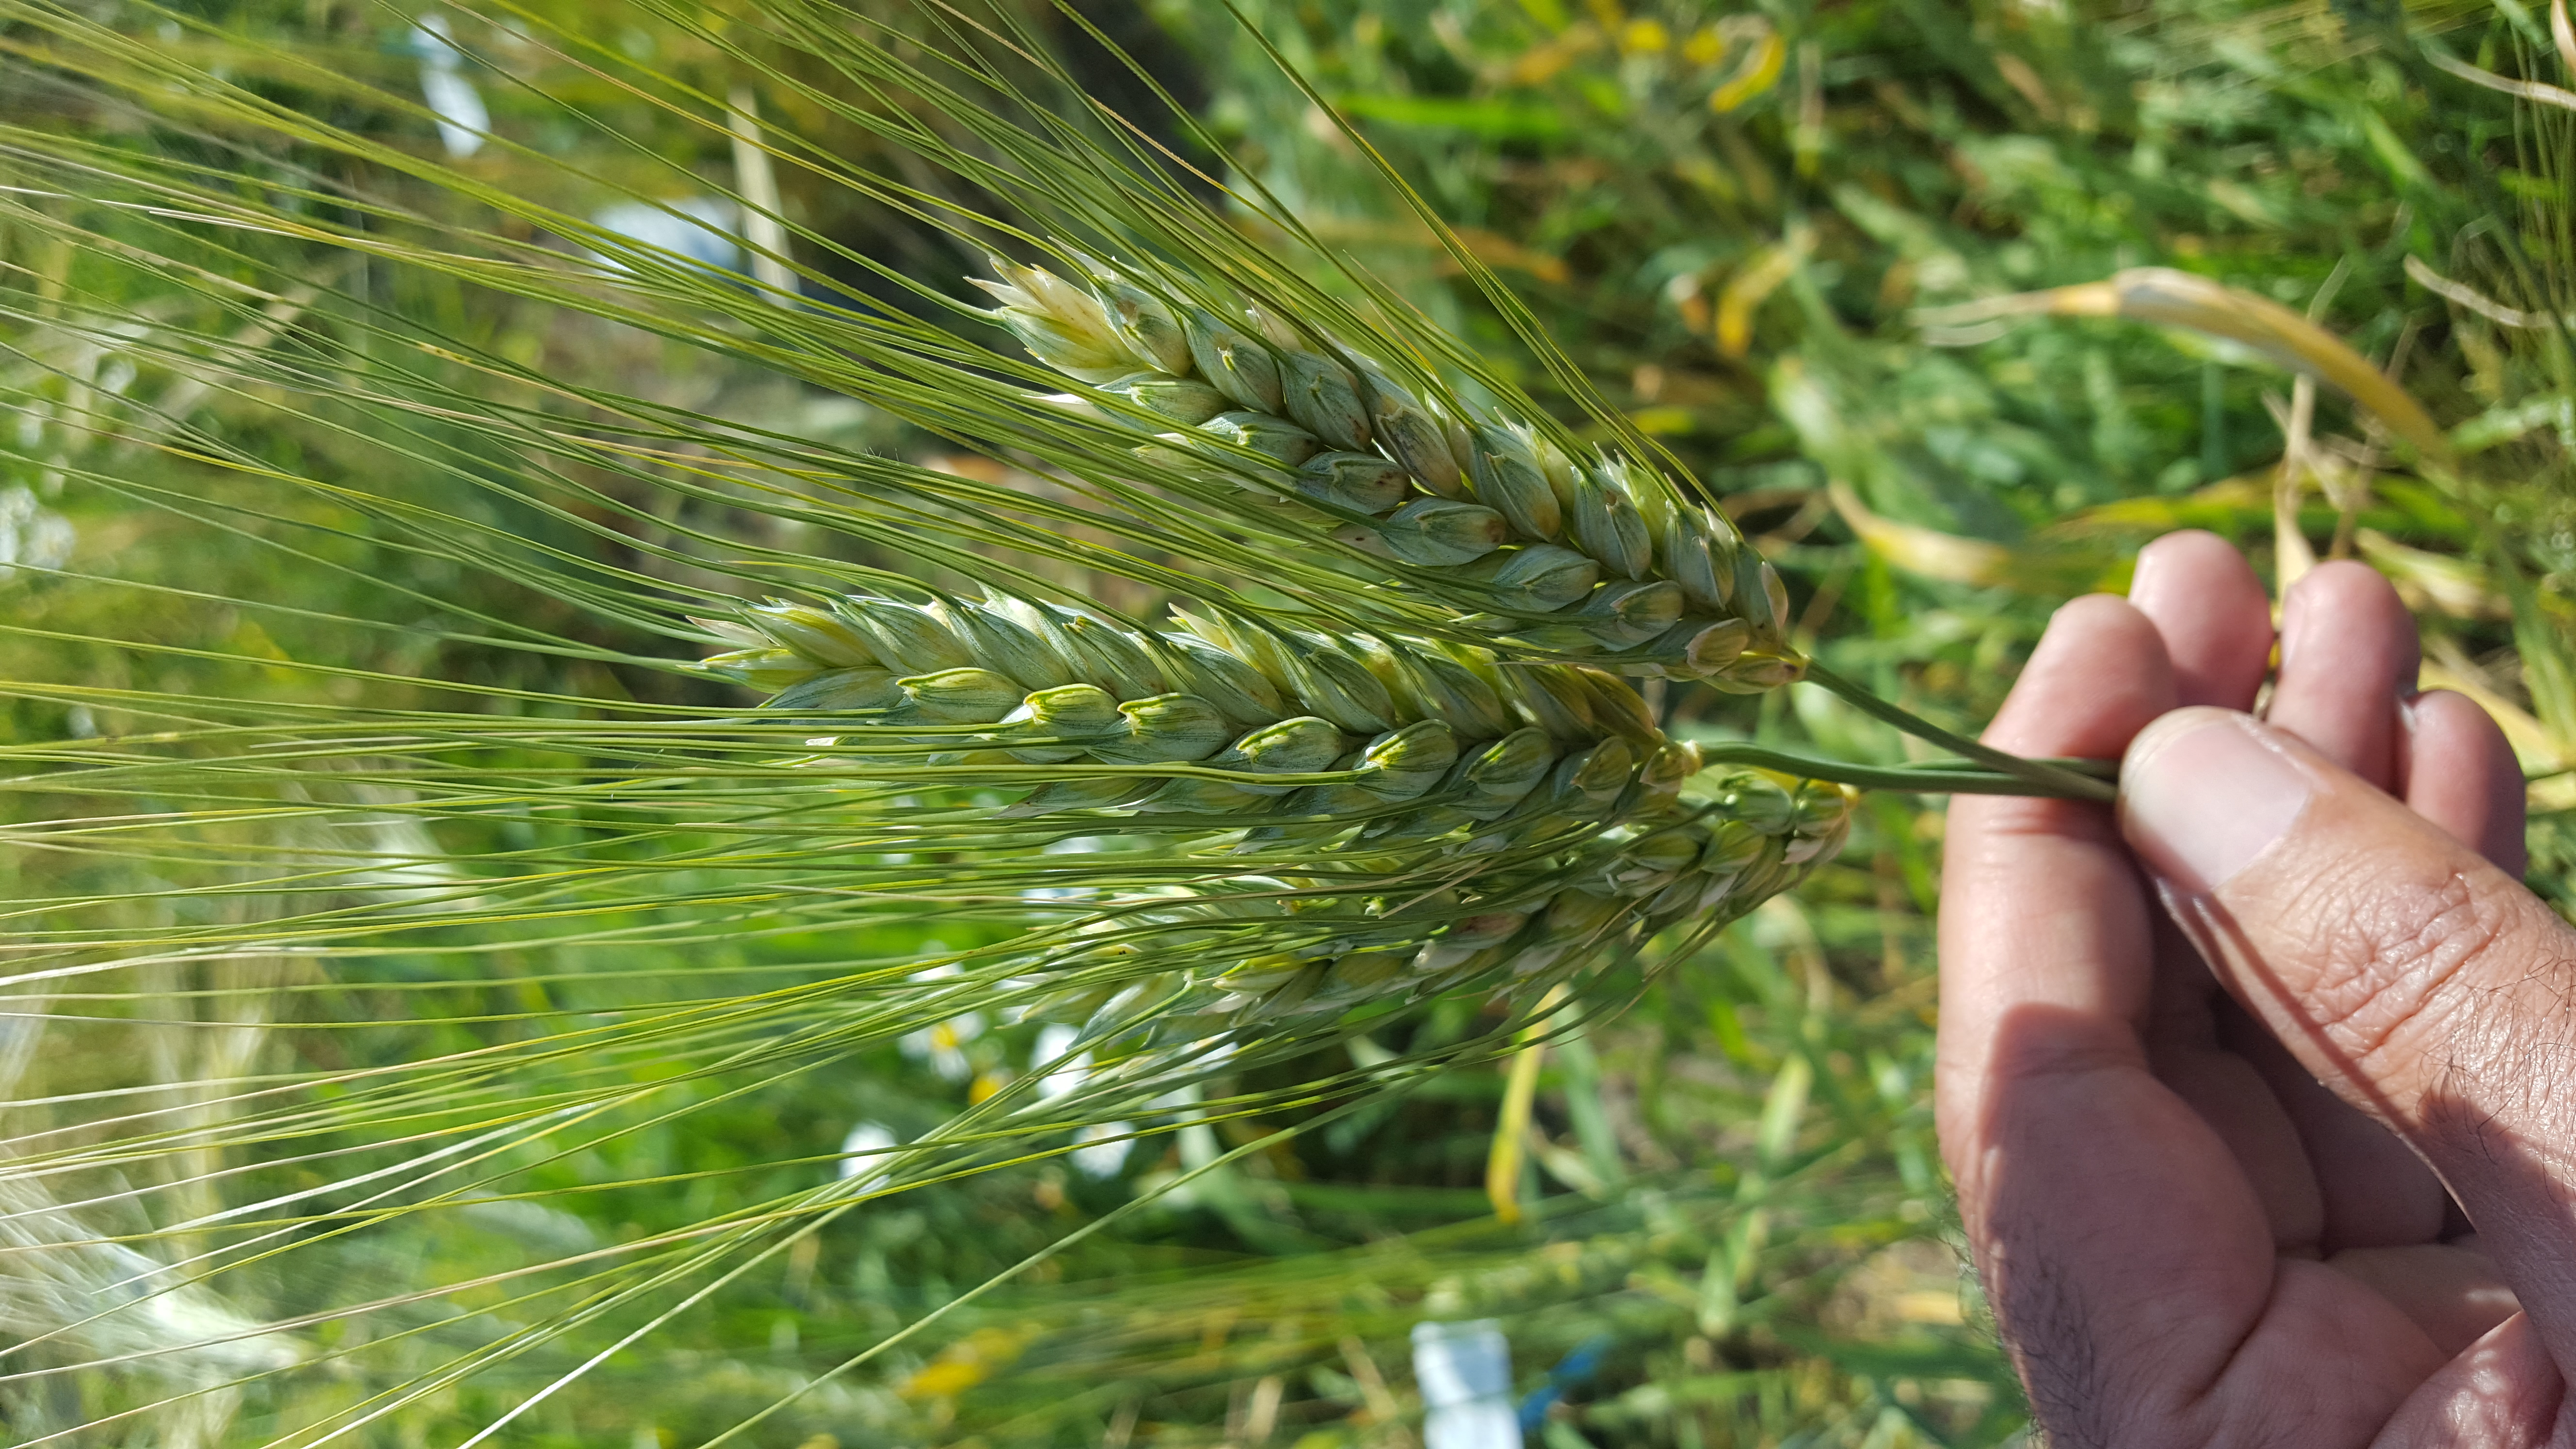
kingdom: Plantae
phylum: Tracheophyta
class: Liliopsida
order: Poales
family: Poaceae
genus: Triticum
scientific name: Triticum turgidum
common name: Rivet wheat
